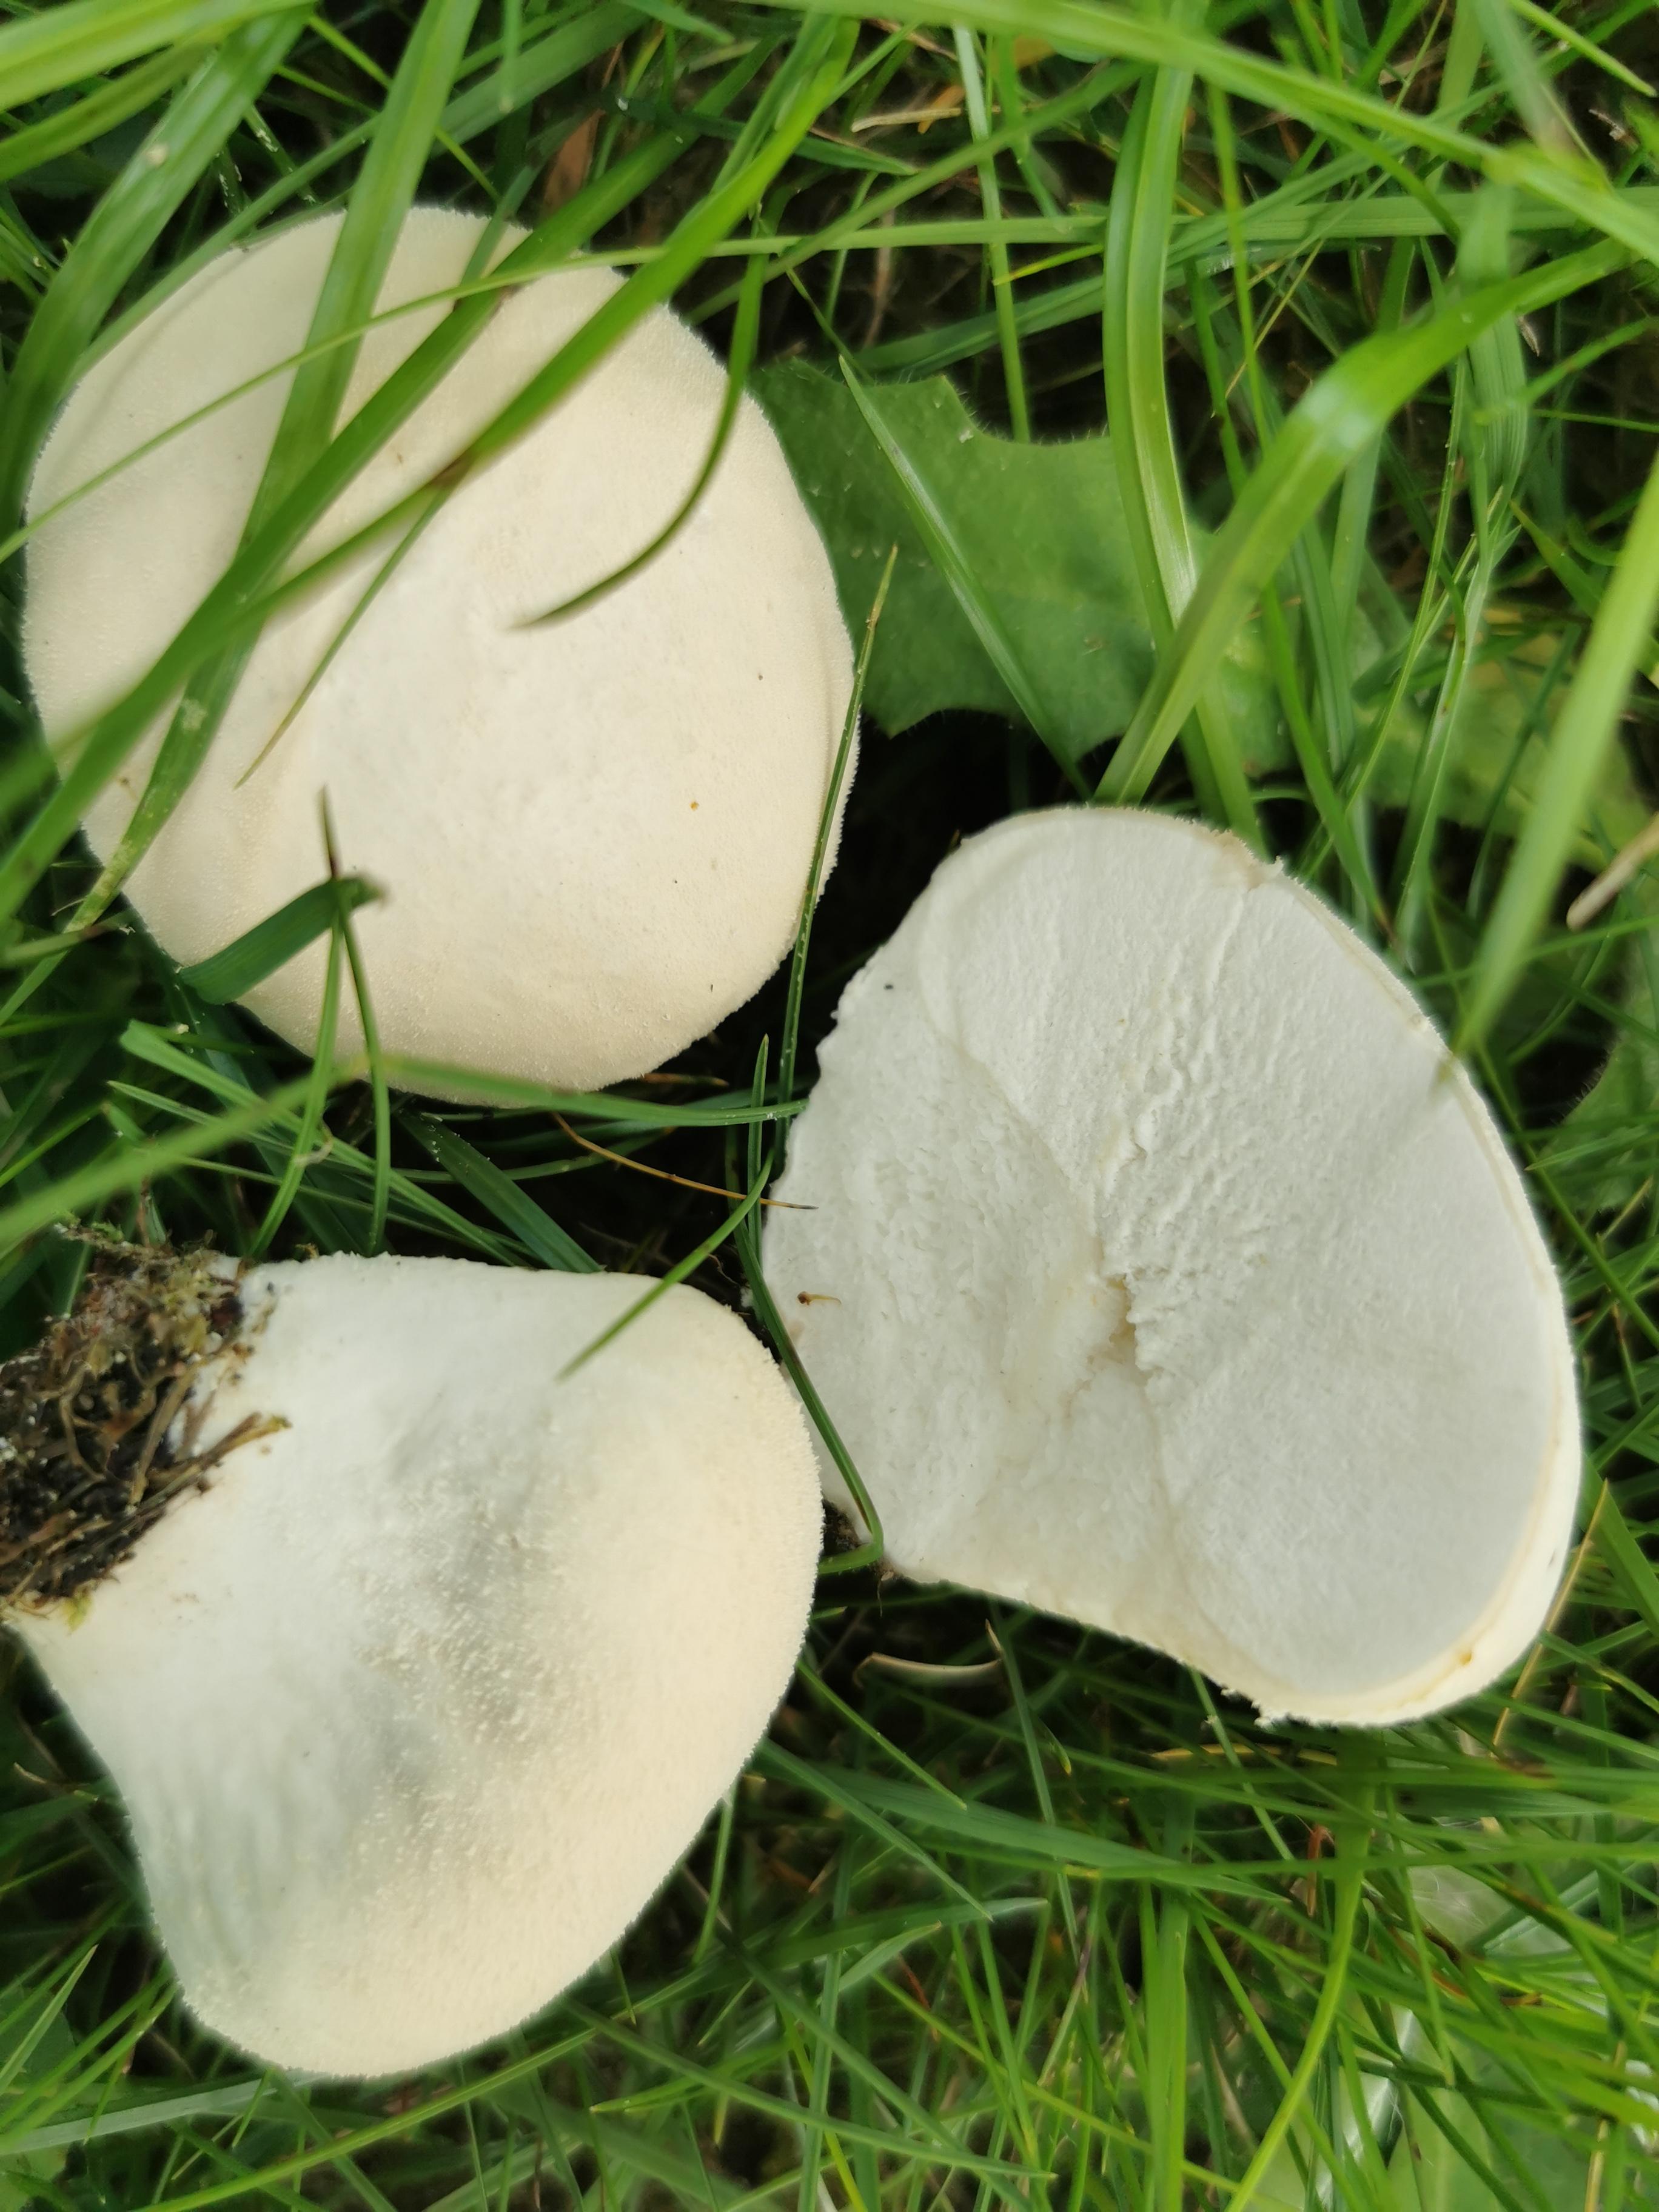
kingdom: Fungi
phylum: Basidiomycota
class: Agaricomycetes
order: Agaricales
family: Lycoperdaceae
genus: Lycoperdon
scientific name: Lycoperdon pratense
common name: flad støvbold
